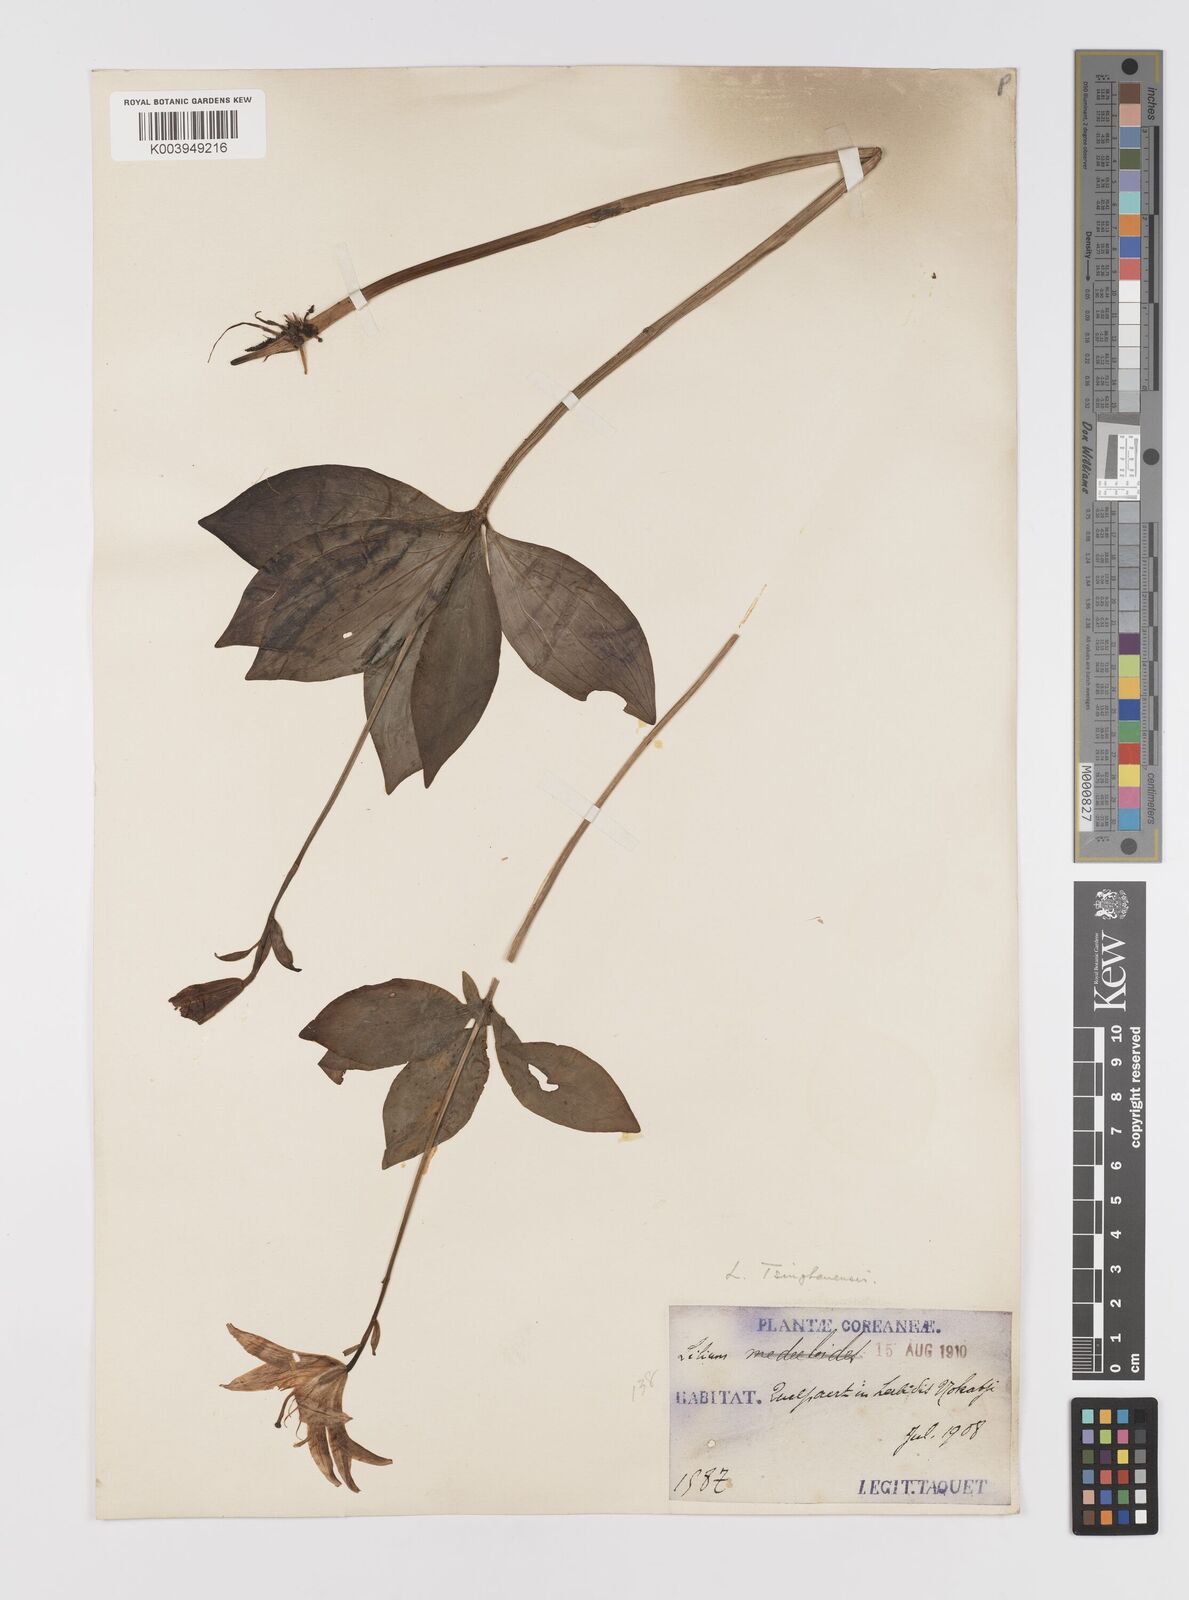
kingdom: Plantae
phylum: Tracheophyta
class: Liliopsida
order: Liliales
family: Liliaceae
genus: Lilium
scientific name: Lilium tsingtauense
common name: Korean wheel lily
